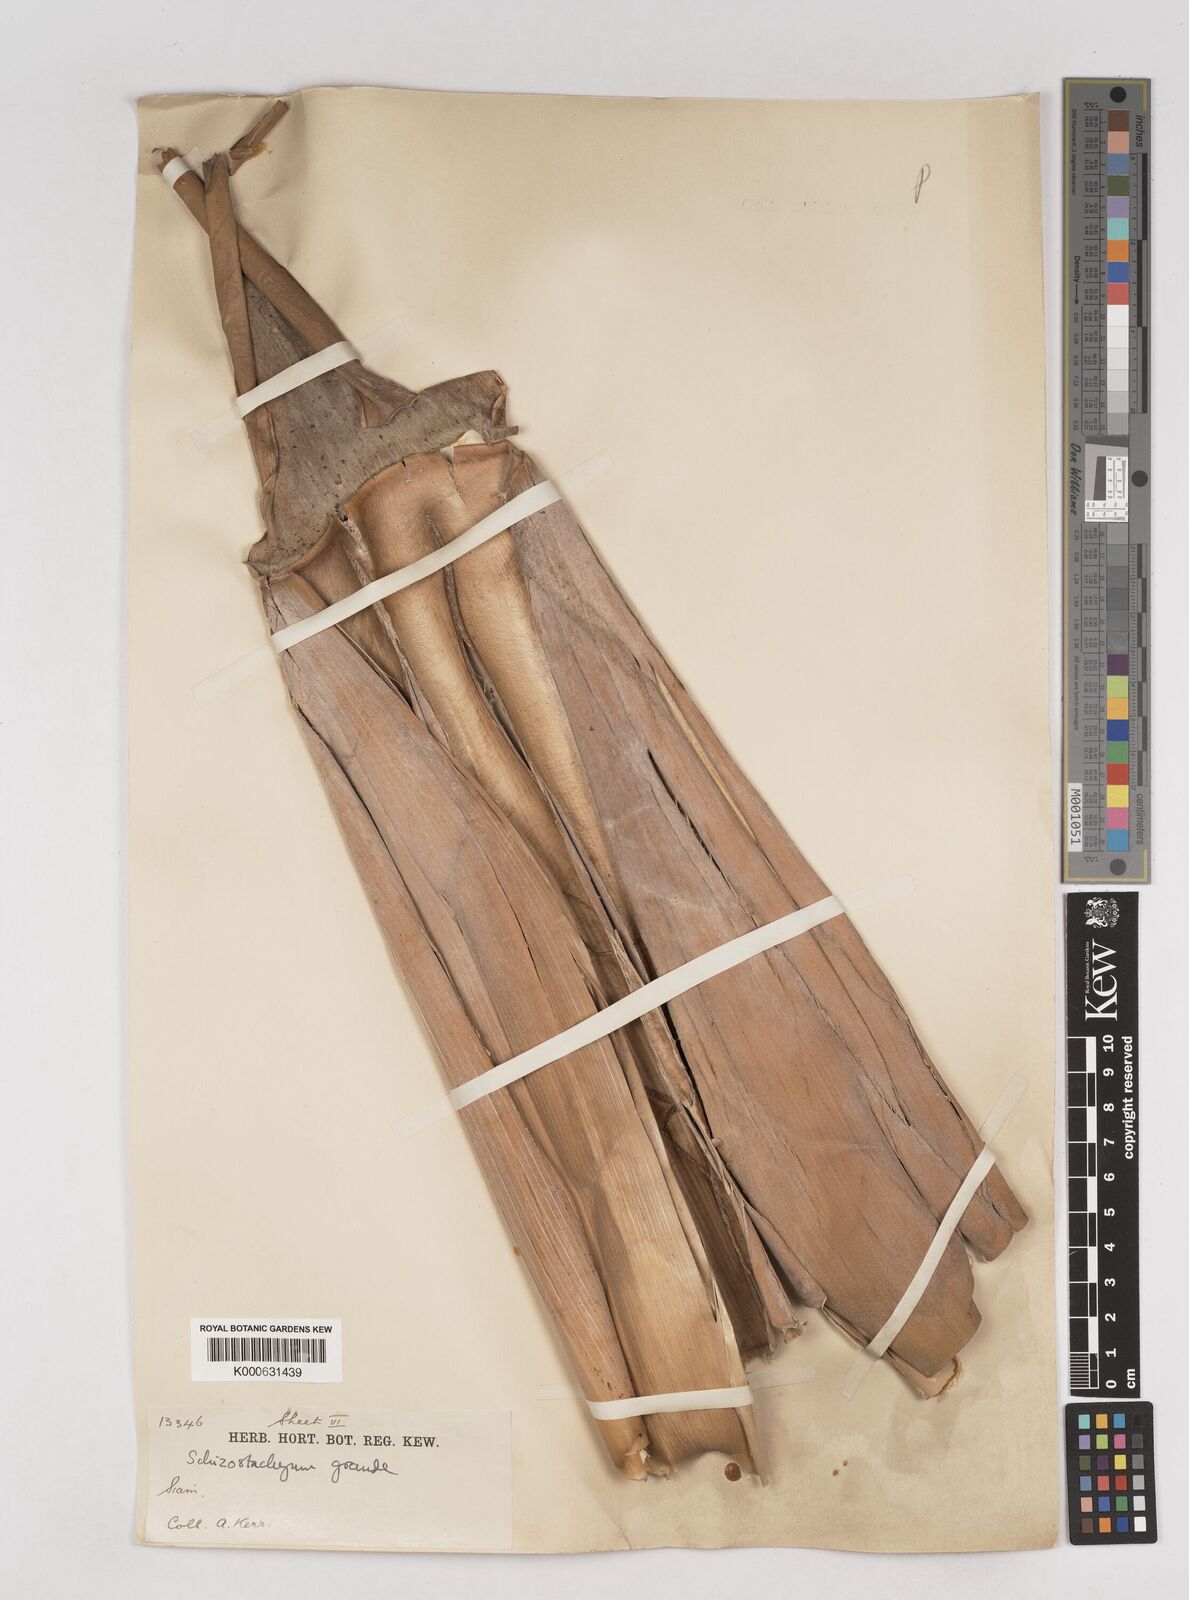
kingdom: Plantae
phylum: Tracheophyta
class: Liliopsida
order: Poales
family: Poaceae
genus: Schizostachyum
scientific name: Schizostachyum grande
